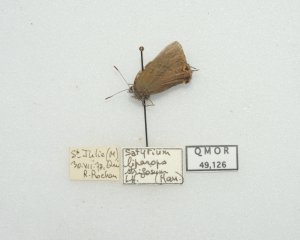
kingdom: Animalia
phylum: Arthropoda
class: Insecta
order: Lepidoptera
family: Lycaenidae
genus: Satyrium
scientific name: Satyrium liparops
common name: Striped Hairstreak
